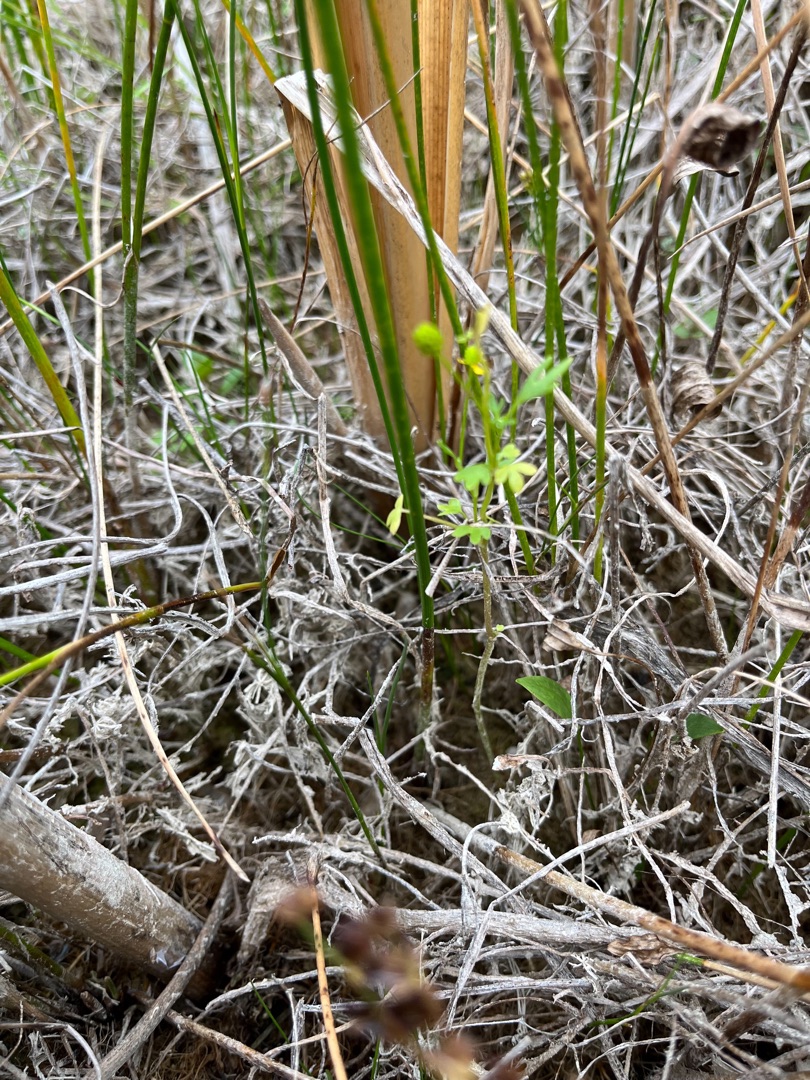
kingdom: Plantae
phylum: Tracheophyta
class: Magnoliopsida
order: Ranunculales
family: Ranunculaceae
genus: Ranunculus
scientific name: Ranunculus sceleratus
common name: Tigger-ranunkel
